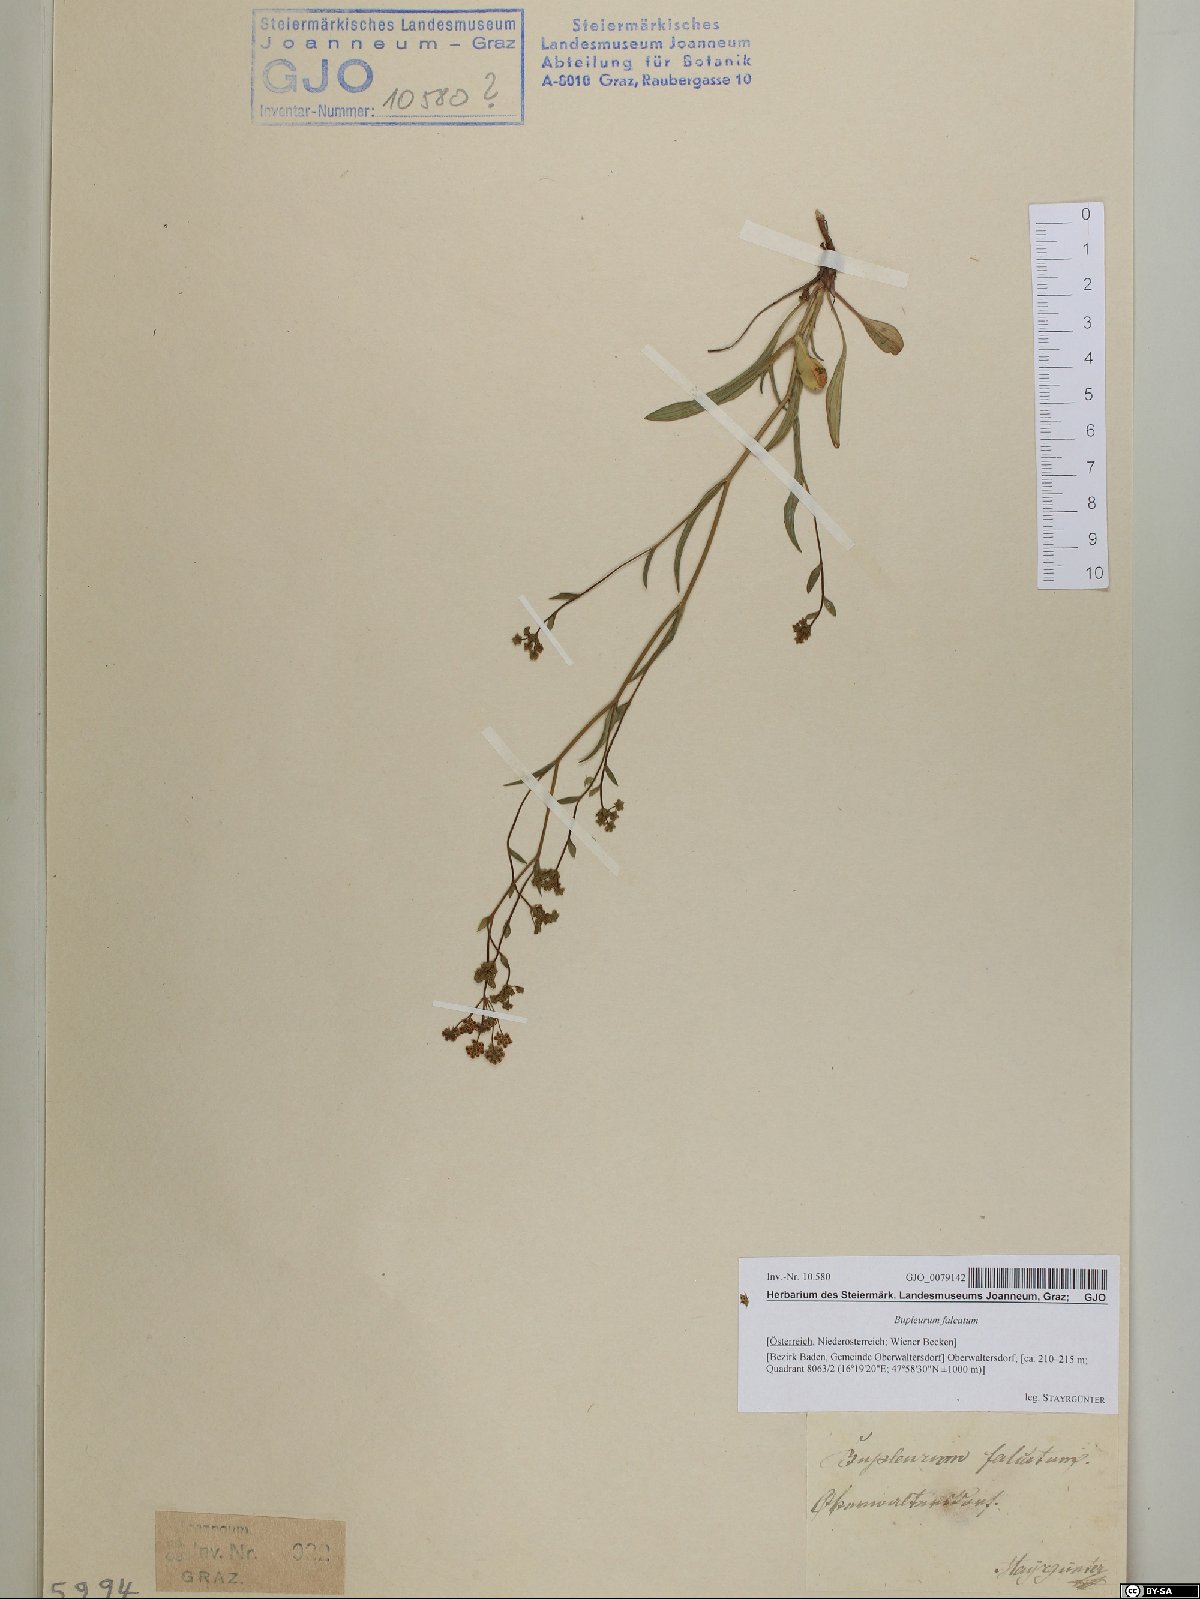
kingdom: Plantae
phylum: Tracheophyta
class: Magnoliopsida
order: Apiales
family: Apiaceae
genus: Bupleurum
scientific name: Bupleurum falcatum
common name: Sickle-leaved hare's-ear
